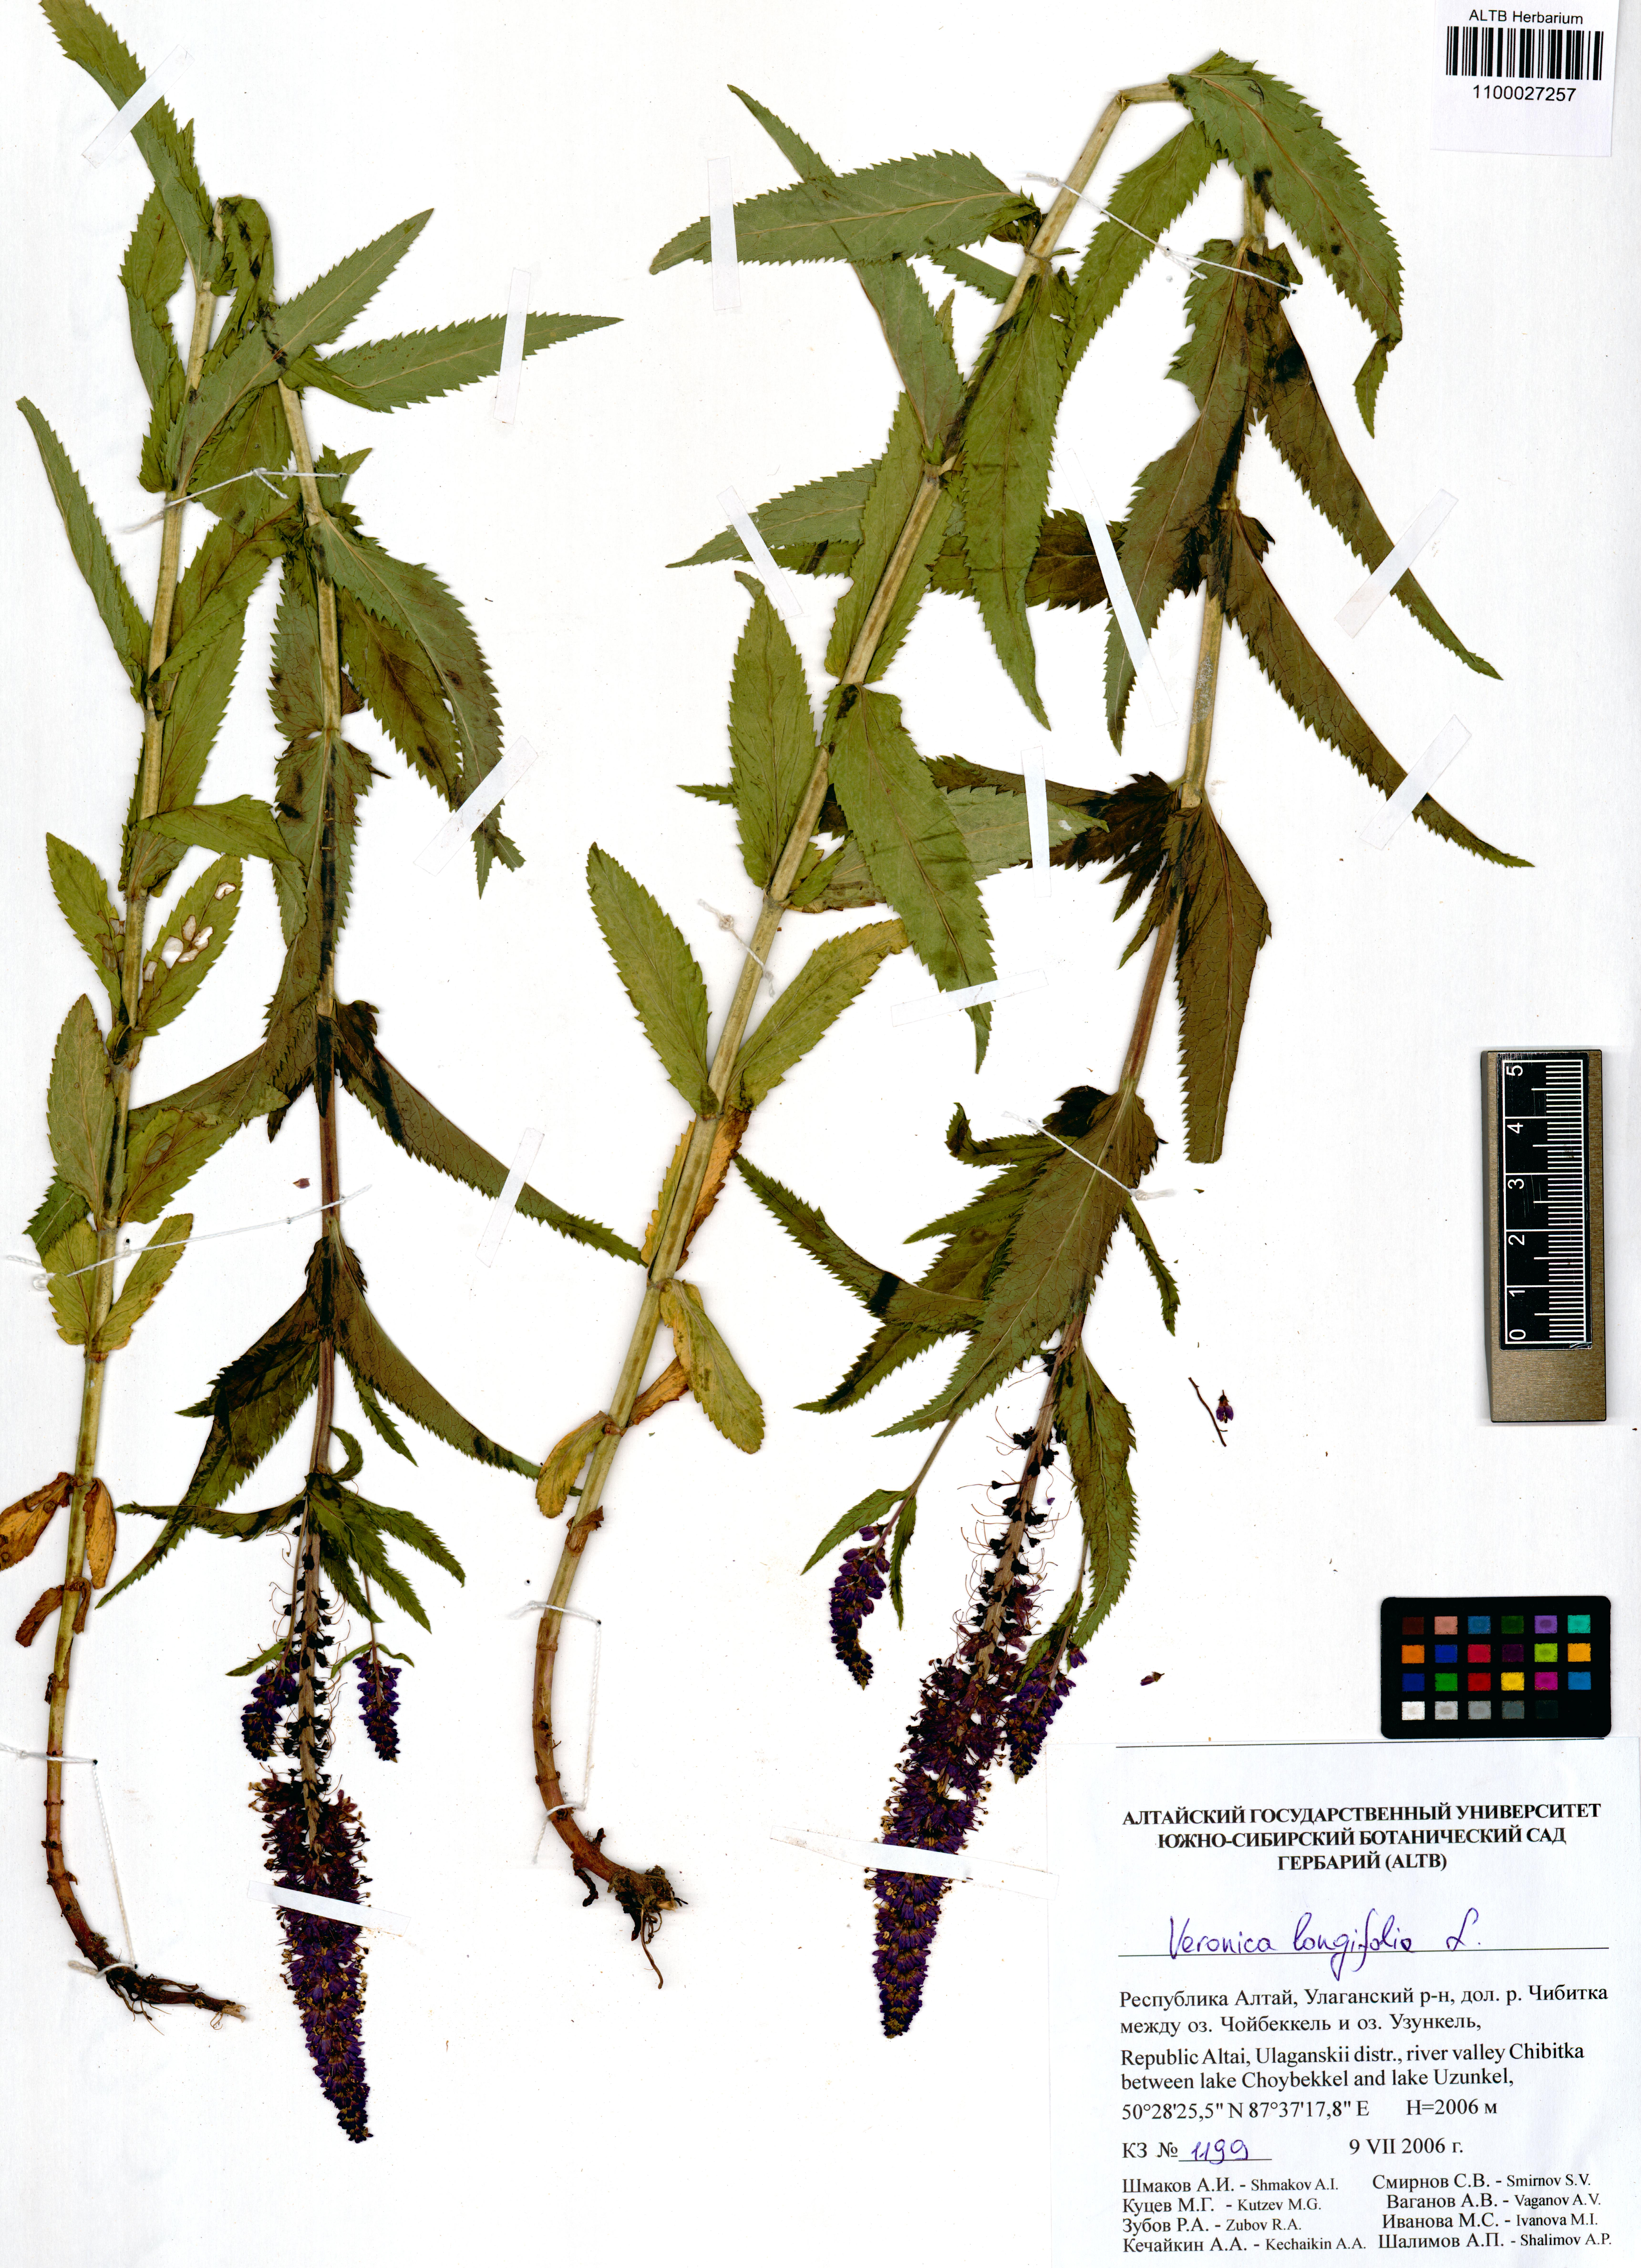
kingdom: Plantae
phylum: Tracheophyta
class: Magnoliopsida
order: Lamiales
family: Plantaginaceae
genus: Veronica
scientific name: Veronica longifolia
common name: Garden speedwell
